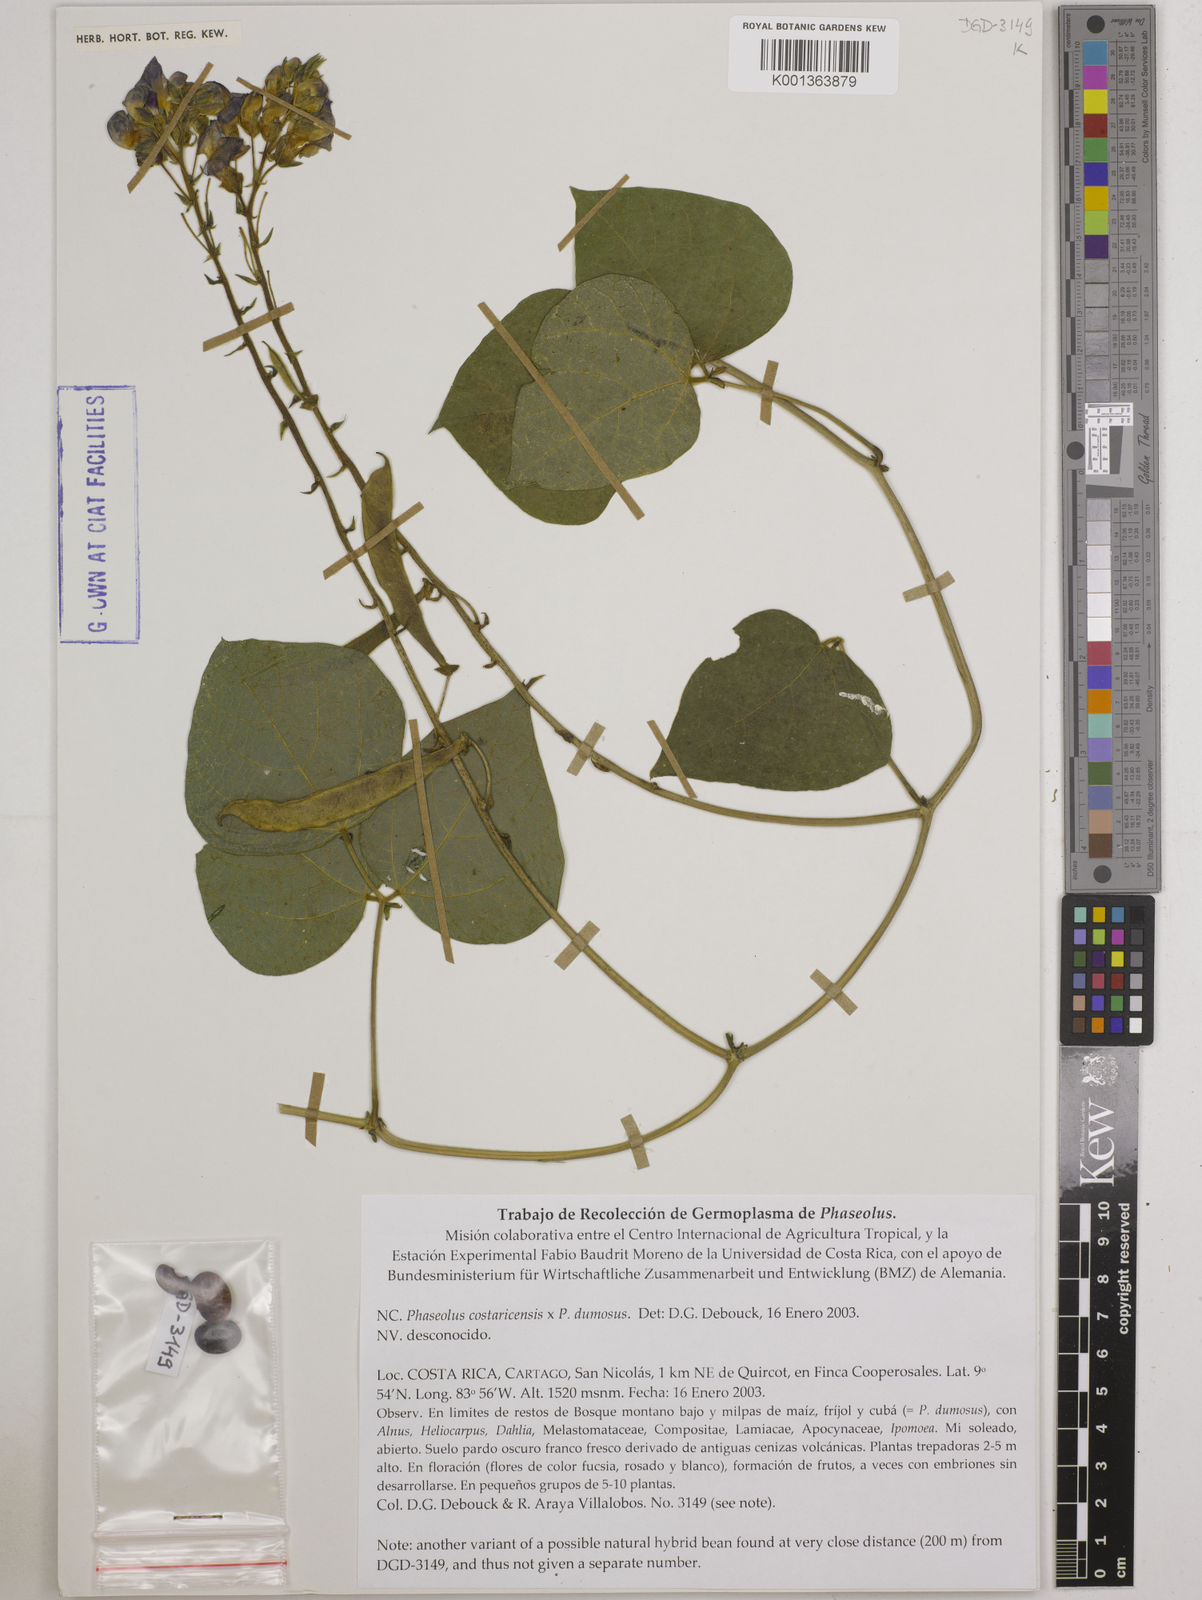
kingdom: Plantae
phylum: Tracheophyta
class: Magnoliopsida
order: Fabales
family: Fabaceae
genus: Phaseolus
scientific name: Phaseolus costaricensis
